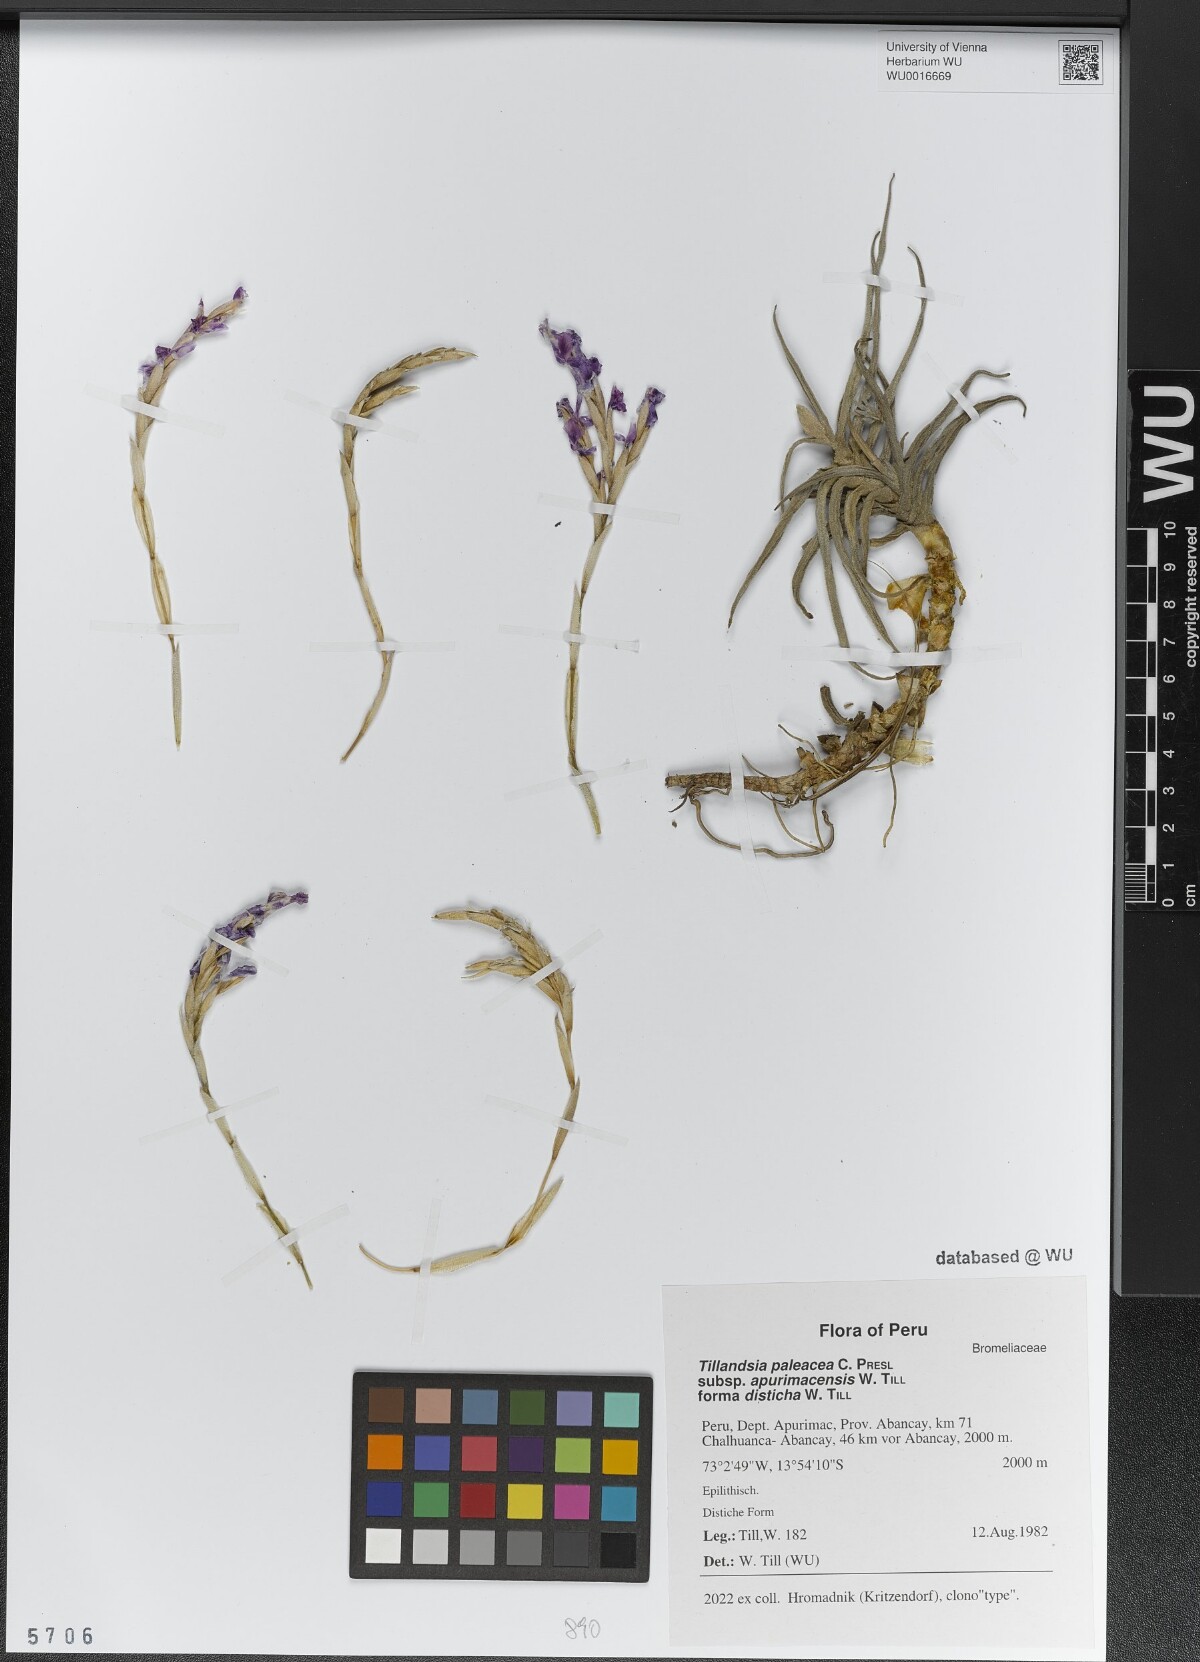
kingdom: Plantae
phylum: Tracheophyta
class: Liliopsida
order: Poales
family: Bromeliaceae
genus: Tillandsia
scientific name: Tillandsia paleacea
